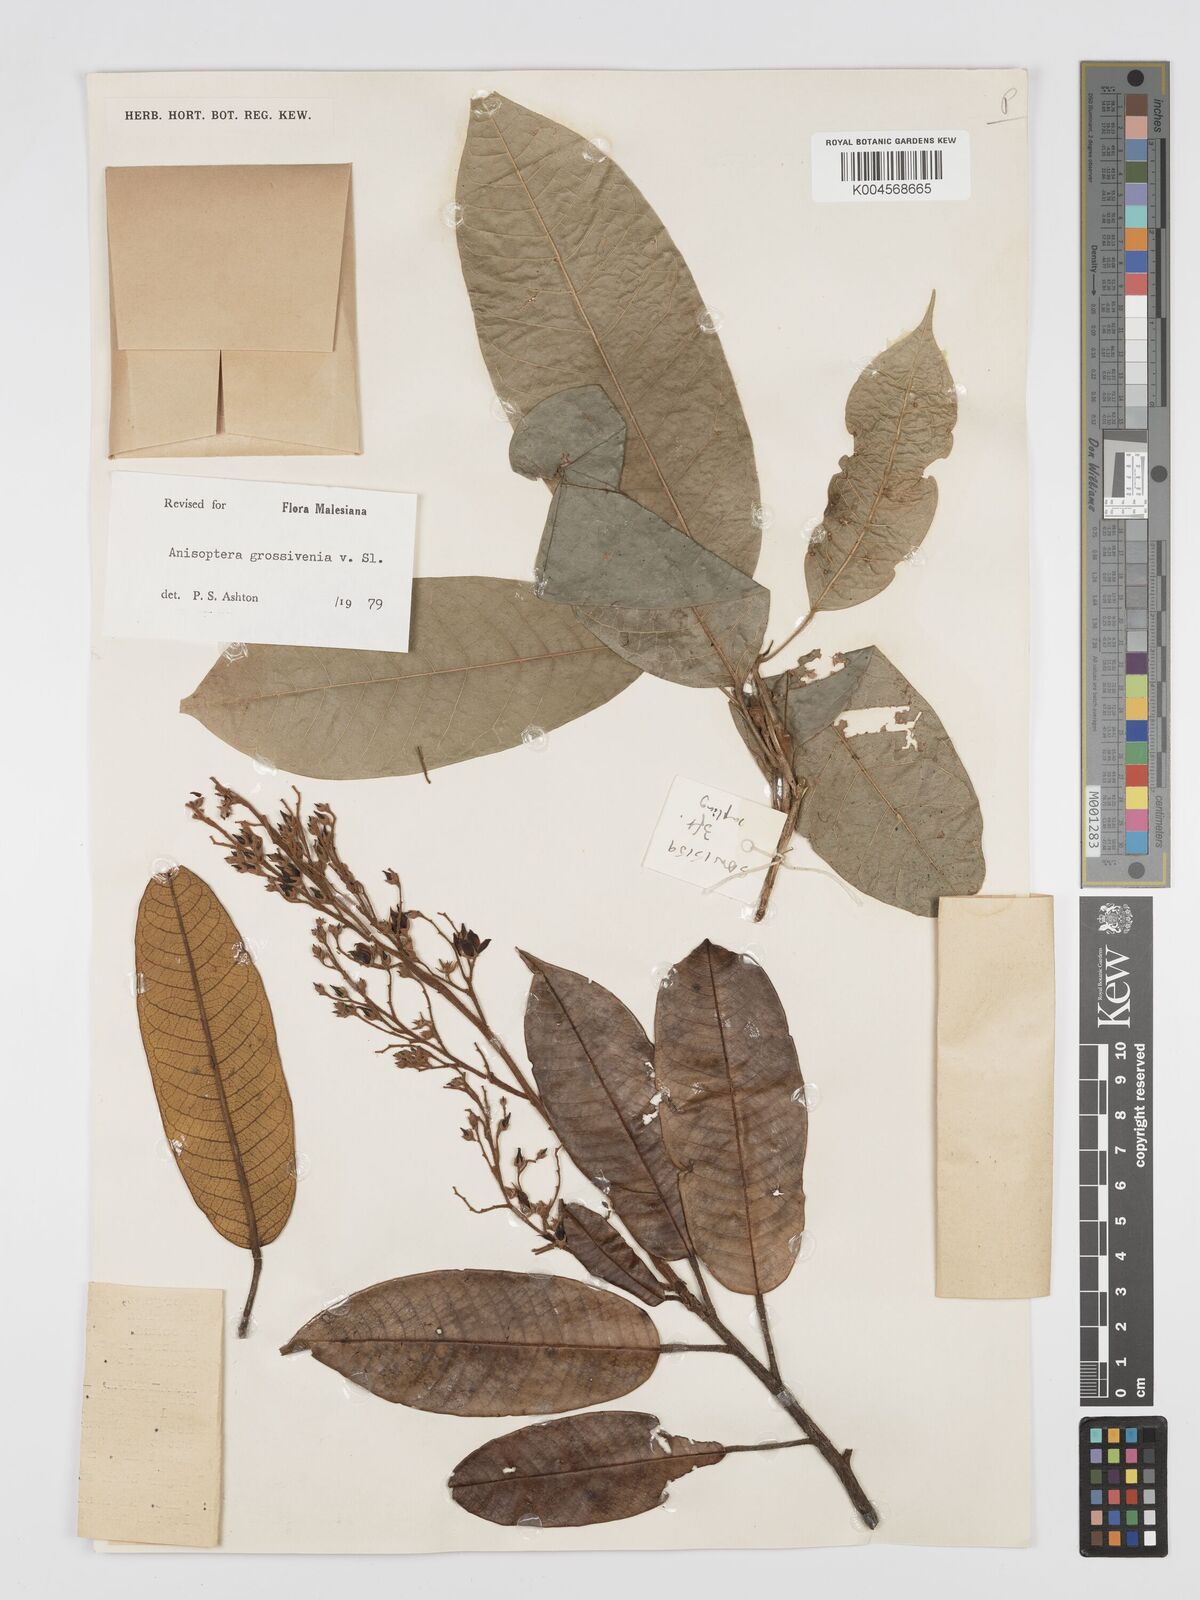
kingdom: Plantae
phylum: Tracheophyta
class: Magnoliopsida
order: Malvales
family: Dipterocarpaceae
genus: Anisoptera
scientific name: Anisoptera grossivenia
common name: Krabak
